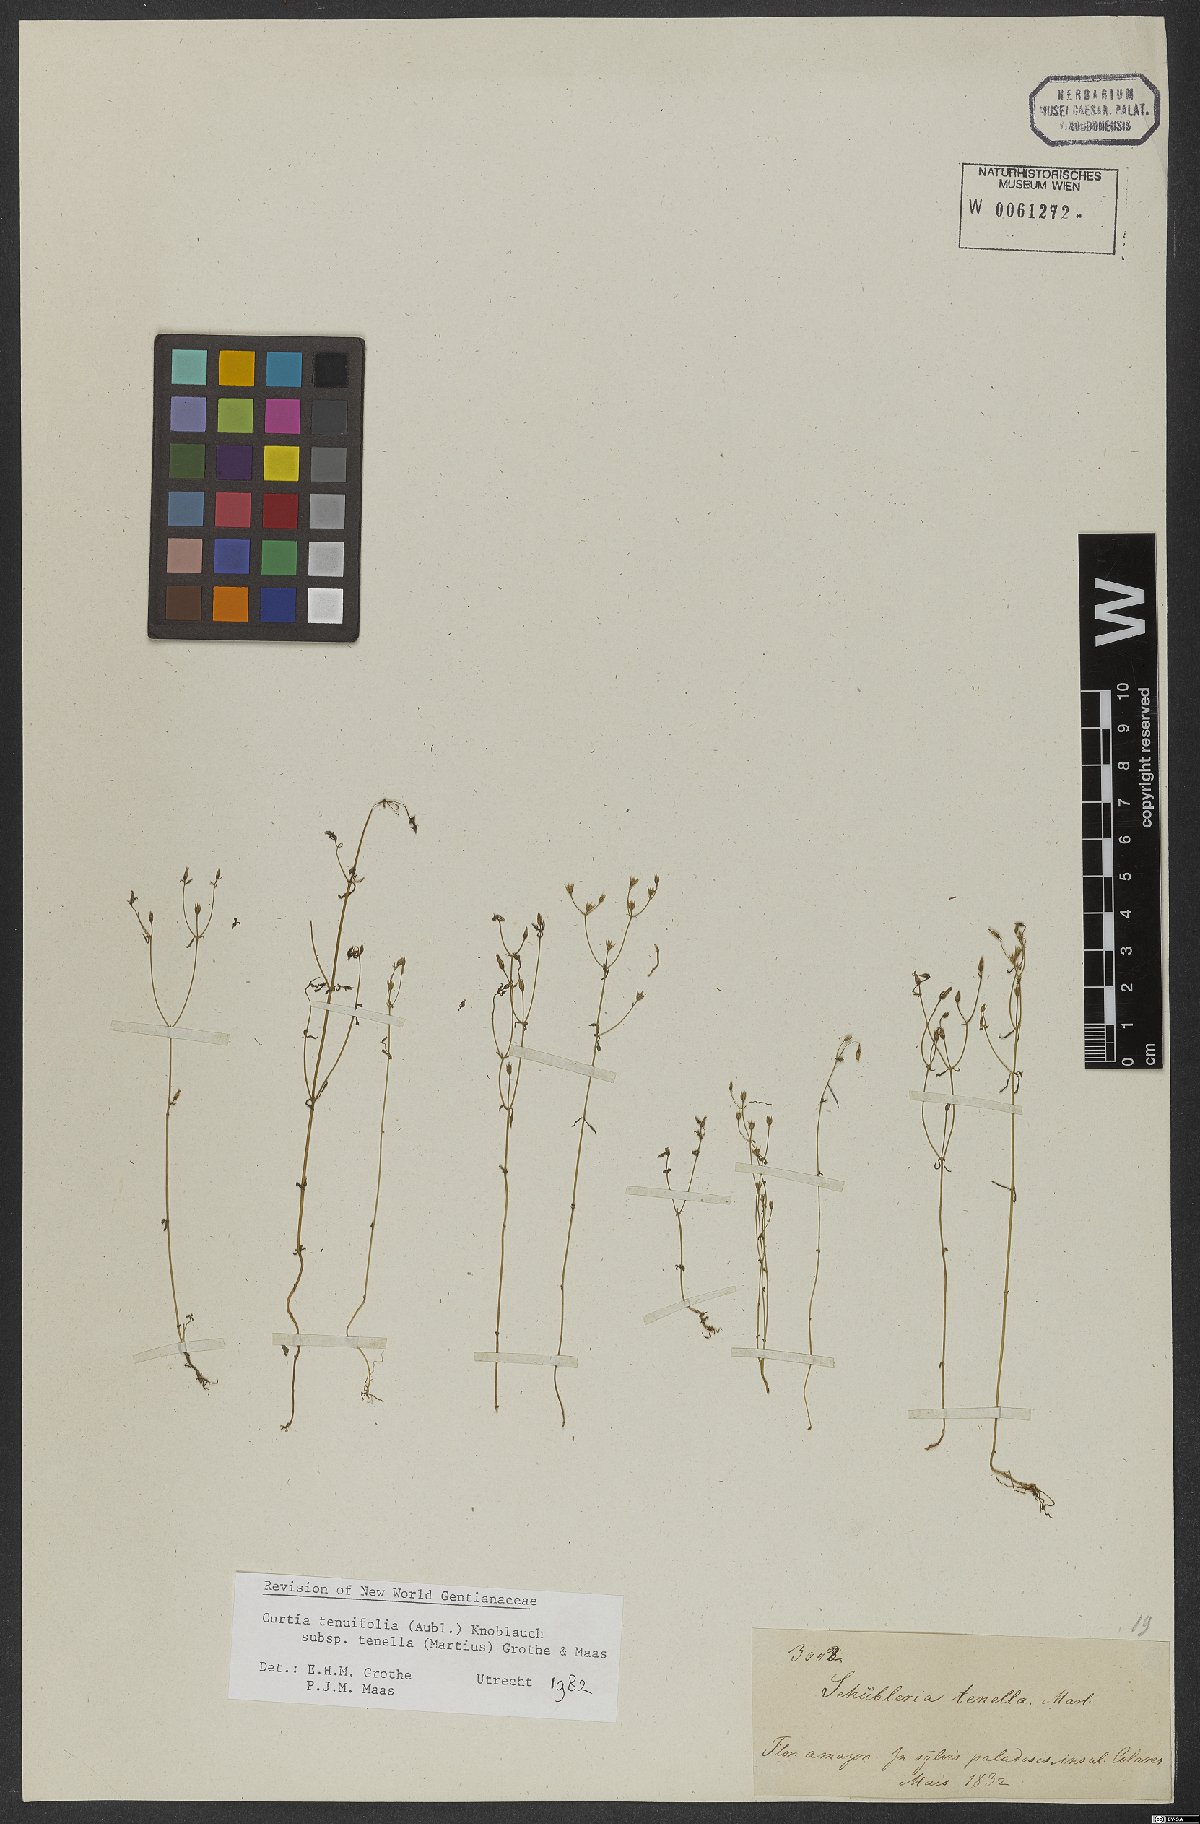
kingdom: Plantae
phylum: Tracheophyta
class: Magnoliopsida
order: Gentianales
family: Gentianaceae
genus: Curtia
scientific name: Curtia tenella
